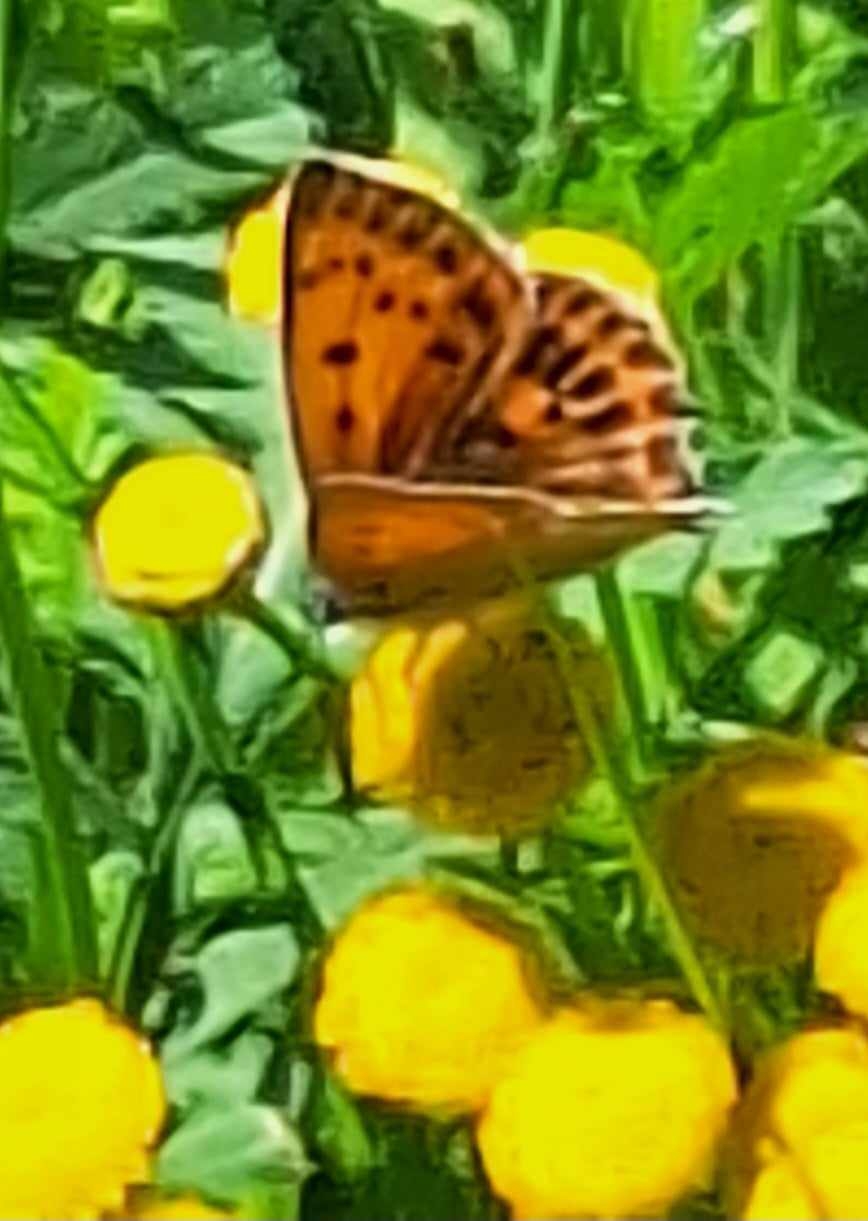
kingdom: Animalia
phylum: Arthropoda
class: Insecta
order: Lepidoptera
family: Lycaenidae
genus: Lycaena
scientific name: Lycaena virgaureae
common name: Dukatsommerfugl
